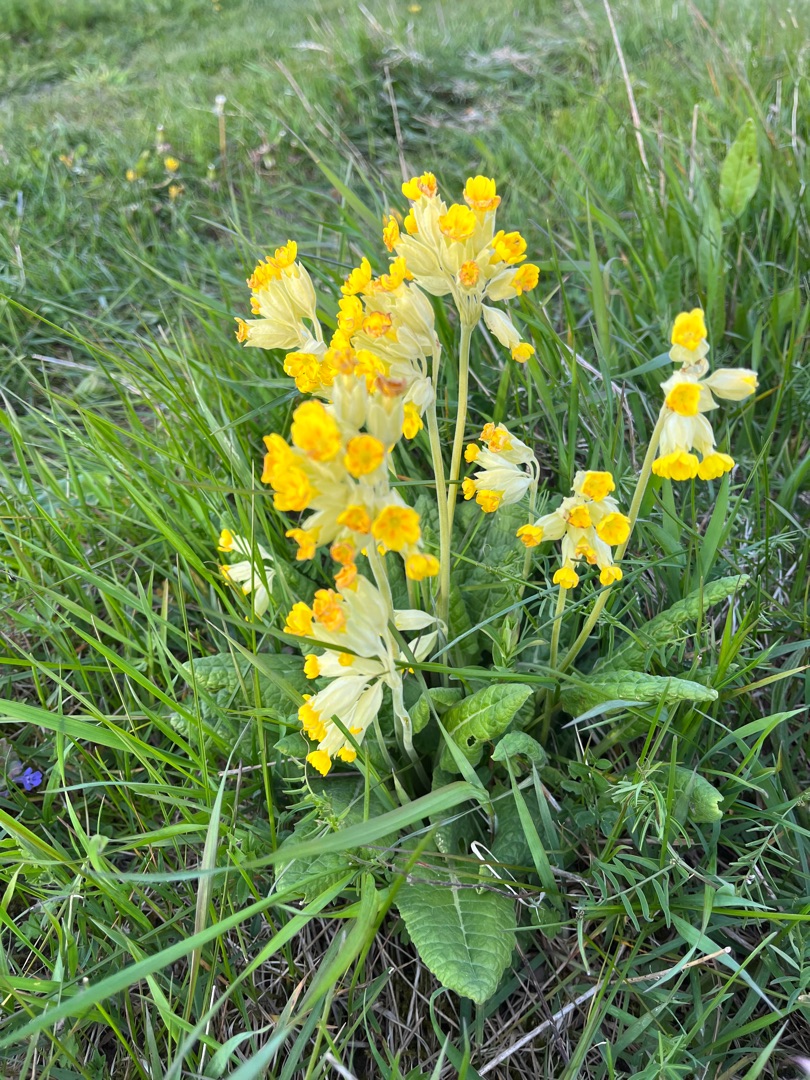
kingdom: Plantae
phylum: Tracheophyta
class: Magnoliopsida
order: Ericales
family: Primulaceae
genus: Primula
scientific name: Primula veris
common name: Hulkravet kodriver
